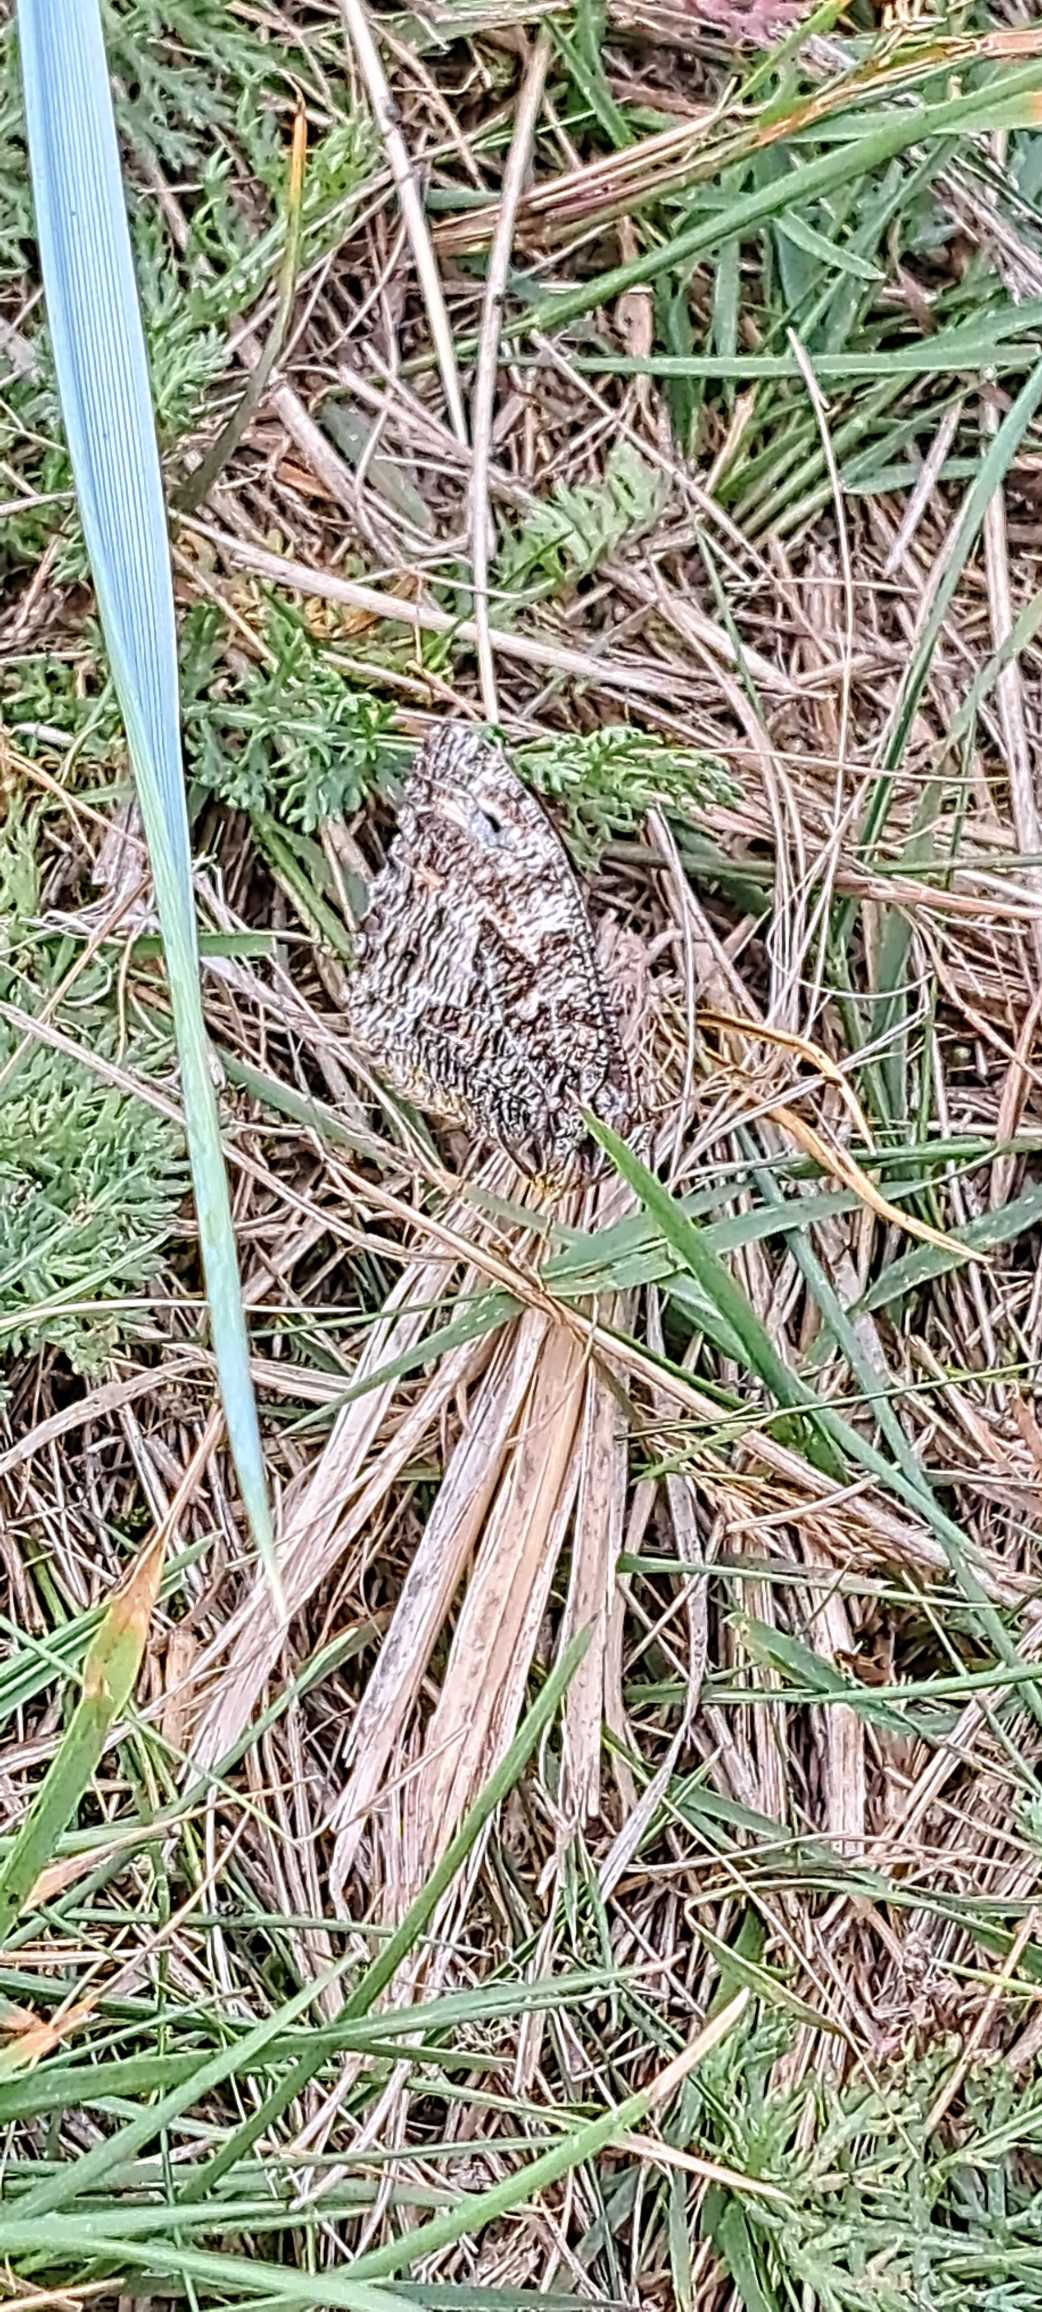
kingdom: Animalia
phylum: Arthropoda
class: Insecta
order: Lepidoptera
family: Nymphalidae
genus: Hipparchia
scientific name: Hipparchia semele
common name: Sandrandøje
